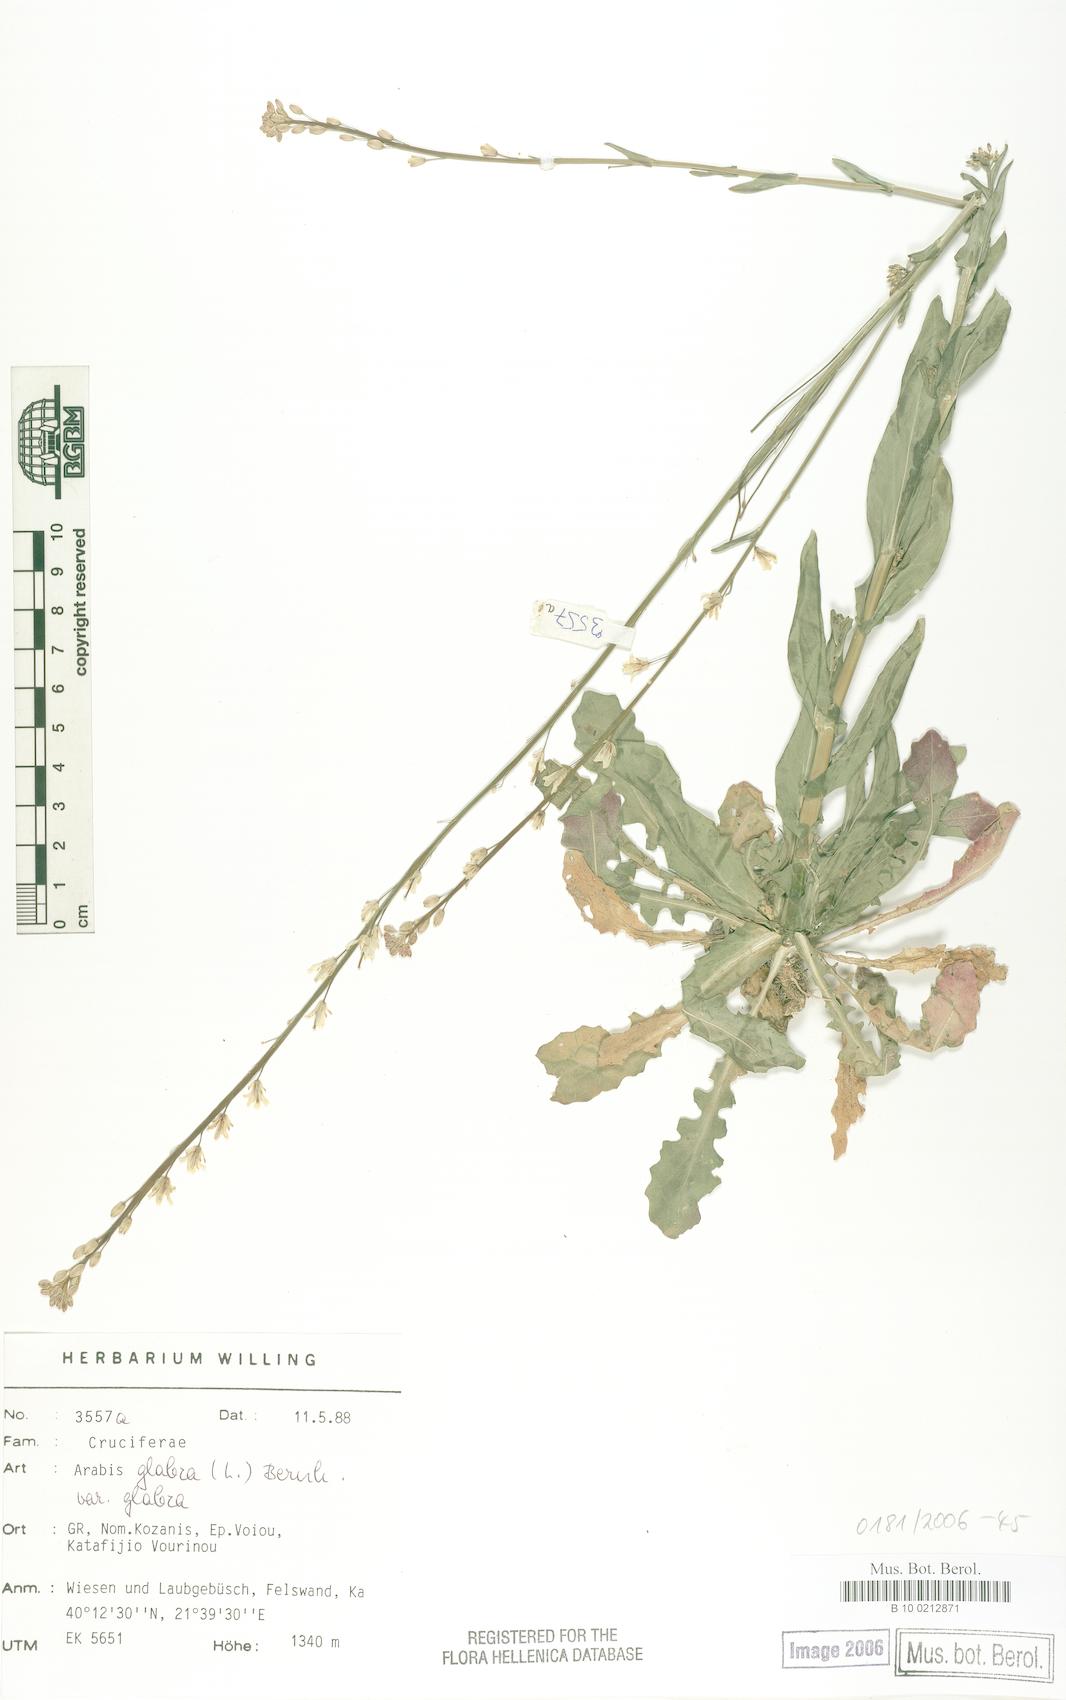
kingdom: Plantae
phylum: Tracheophyta
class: Magnoliopsida
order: Brassicales
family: Brassicaceae
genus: Turritis
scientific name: Turritis glabra
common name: Tower rockcress
